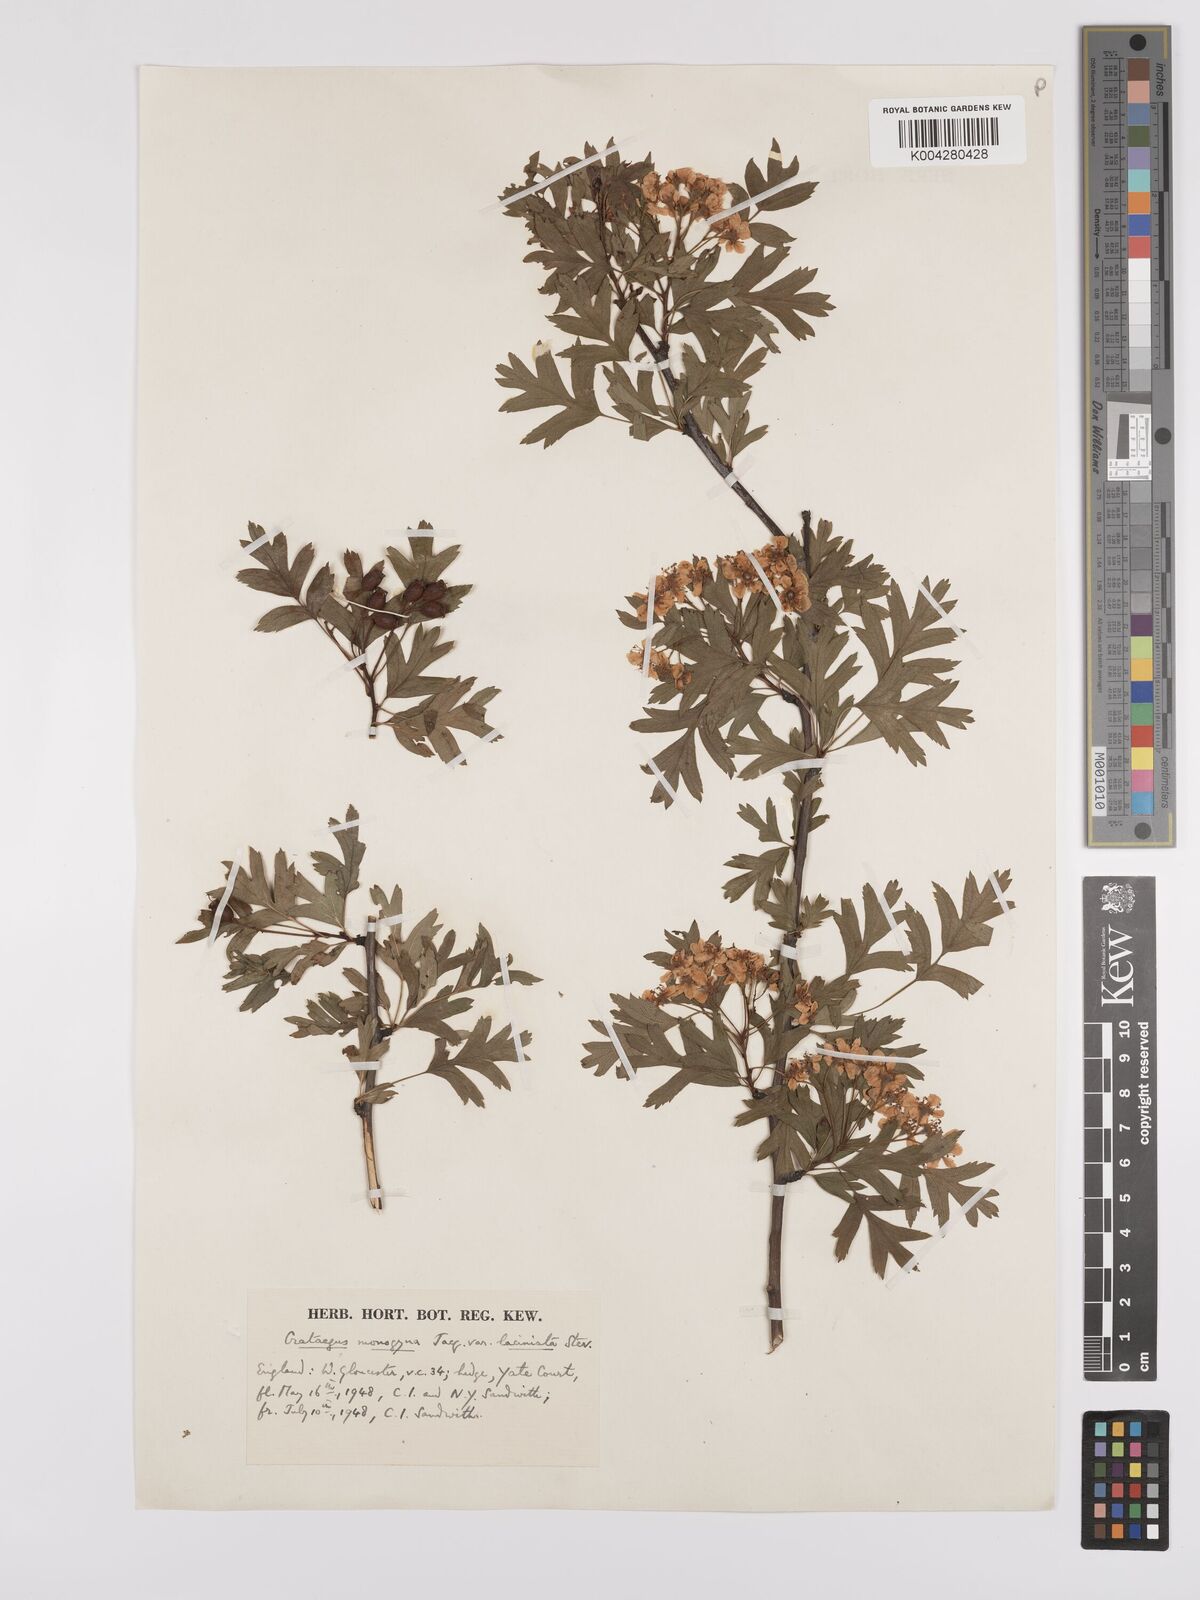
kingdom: Plantae
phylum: Tracheophyta
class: Magnoliopsida
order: Rosales
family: Rosaceae
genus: Crataegus
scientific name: Crataegus monogyna
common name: Hawthorn
